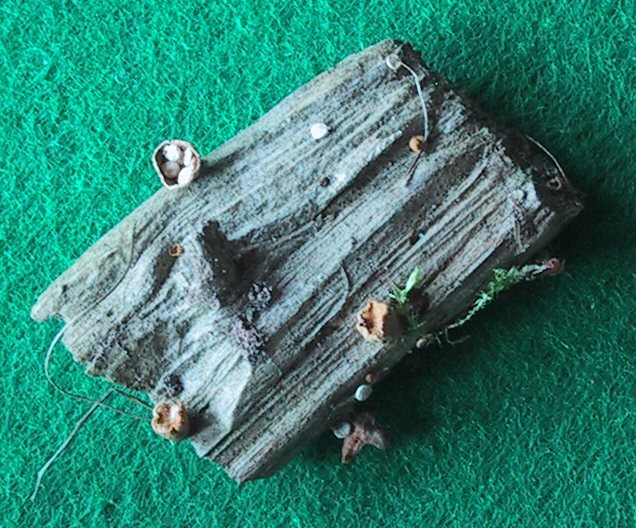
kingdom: Fungi
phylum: Basidiomycota
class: Agaricomycetes
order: Agaricales
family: Nidulariaceae
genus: Crucibulum
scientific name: Crucibulum crucibuliforme
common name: krukkesvamp
